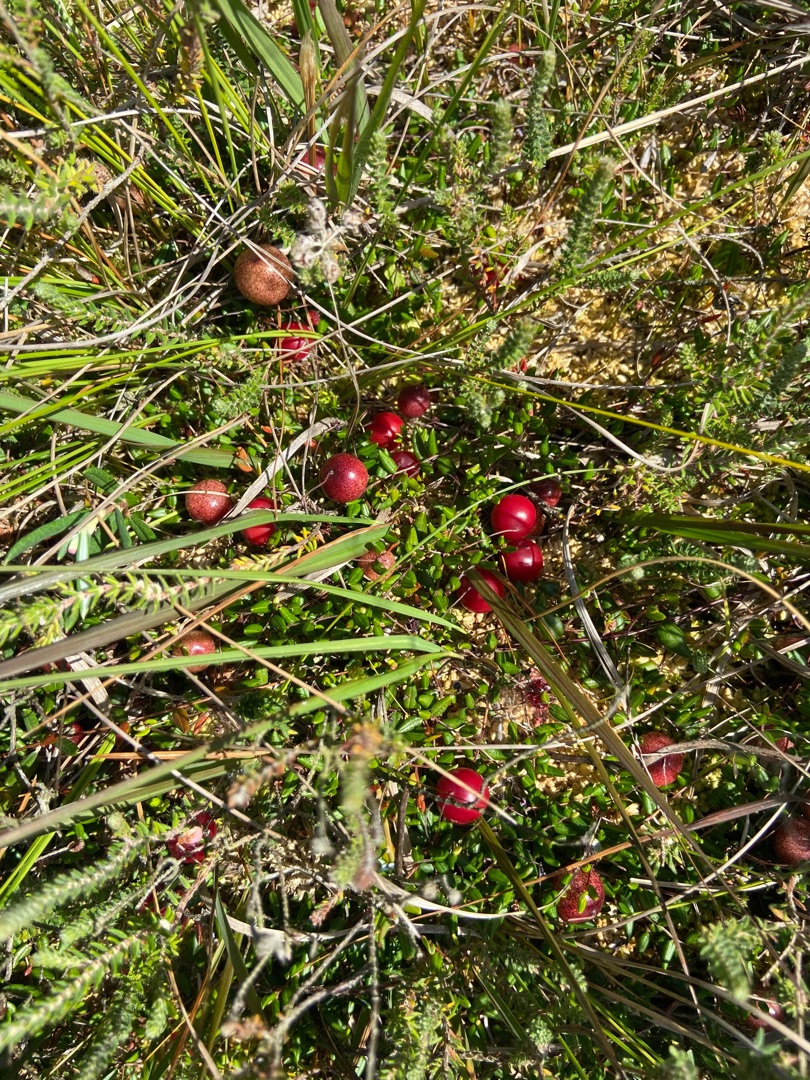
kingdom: Plantae
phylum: Tracheophyta
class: Magnoliopsida
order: Ericales
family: Ericaceae
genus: Vaccinium
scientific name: Vaccinium oxycoccos
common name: Tranebær
